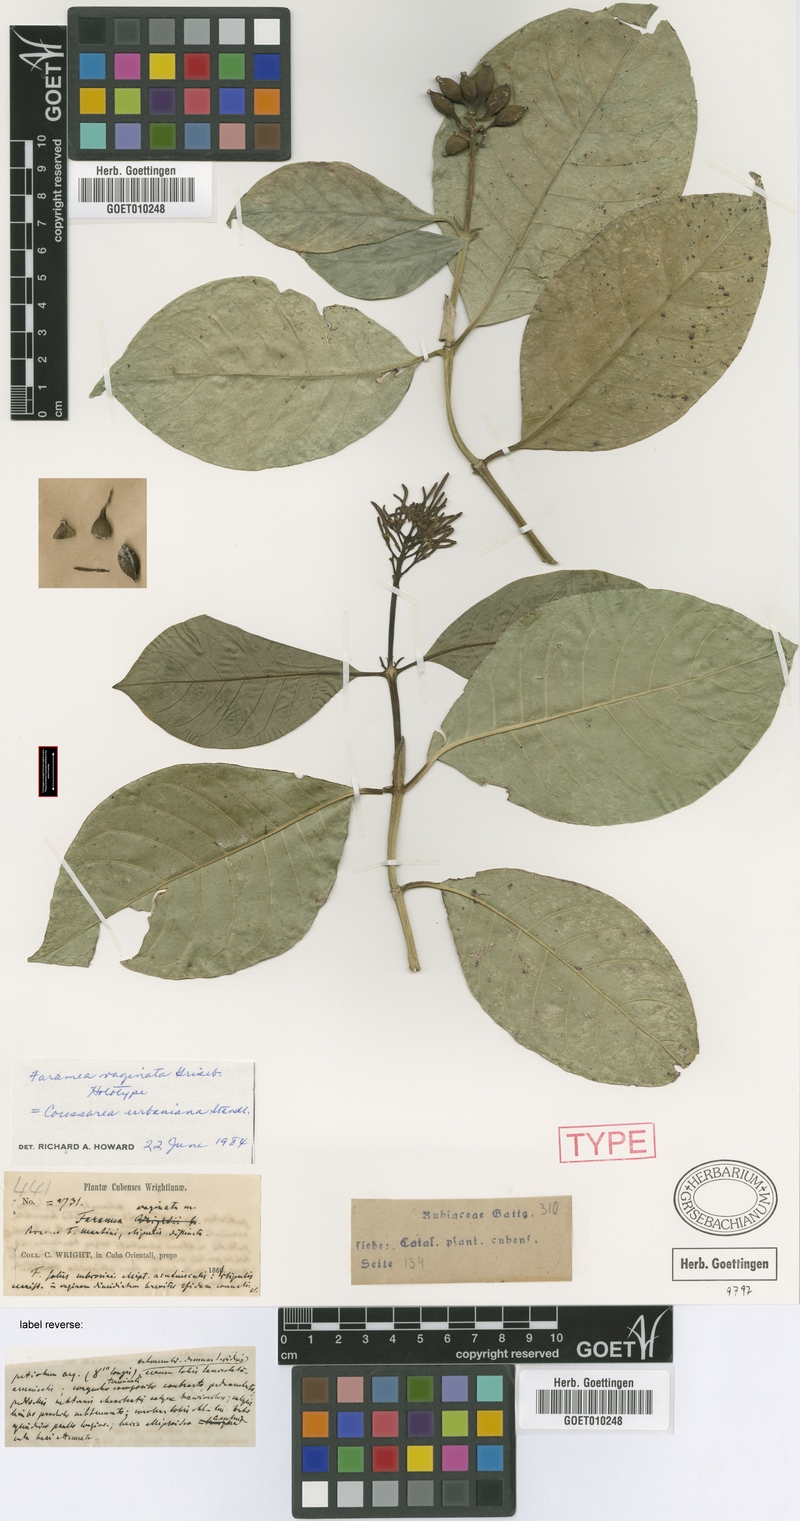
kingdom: Plantae
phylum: Tracheophyta
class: Magnoliopsida
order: Gentianales
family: Rubiaceae
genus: Coussarea
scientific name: Coussarea vaginata
